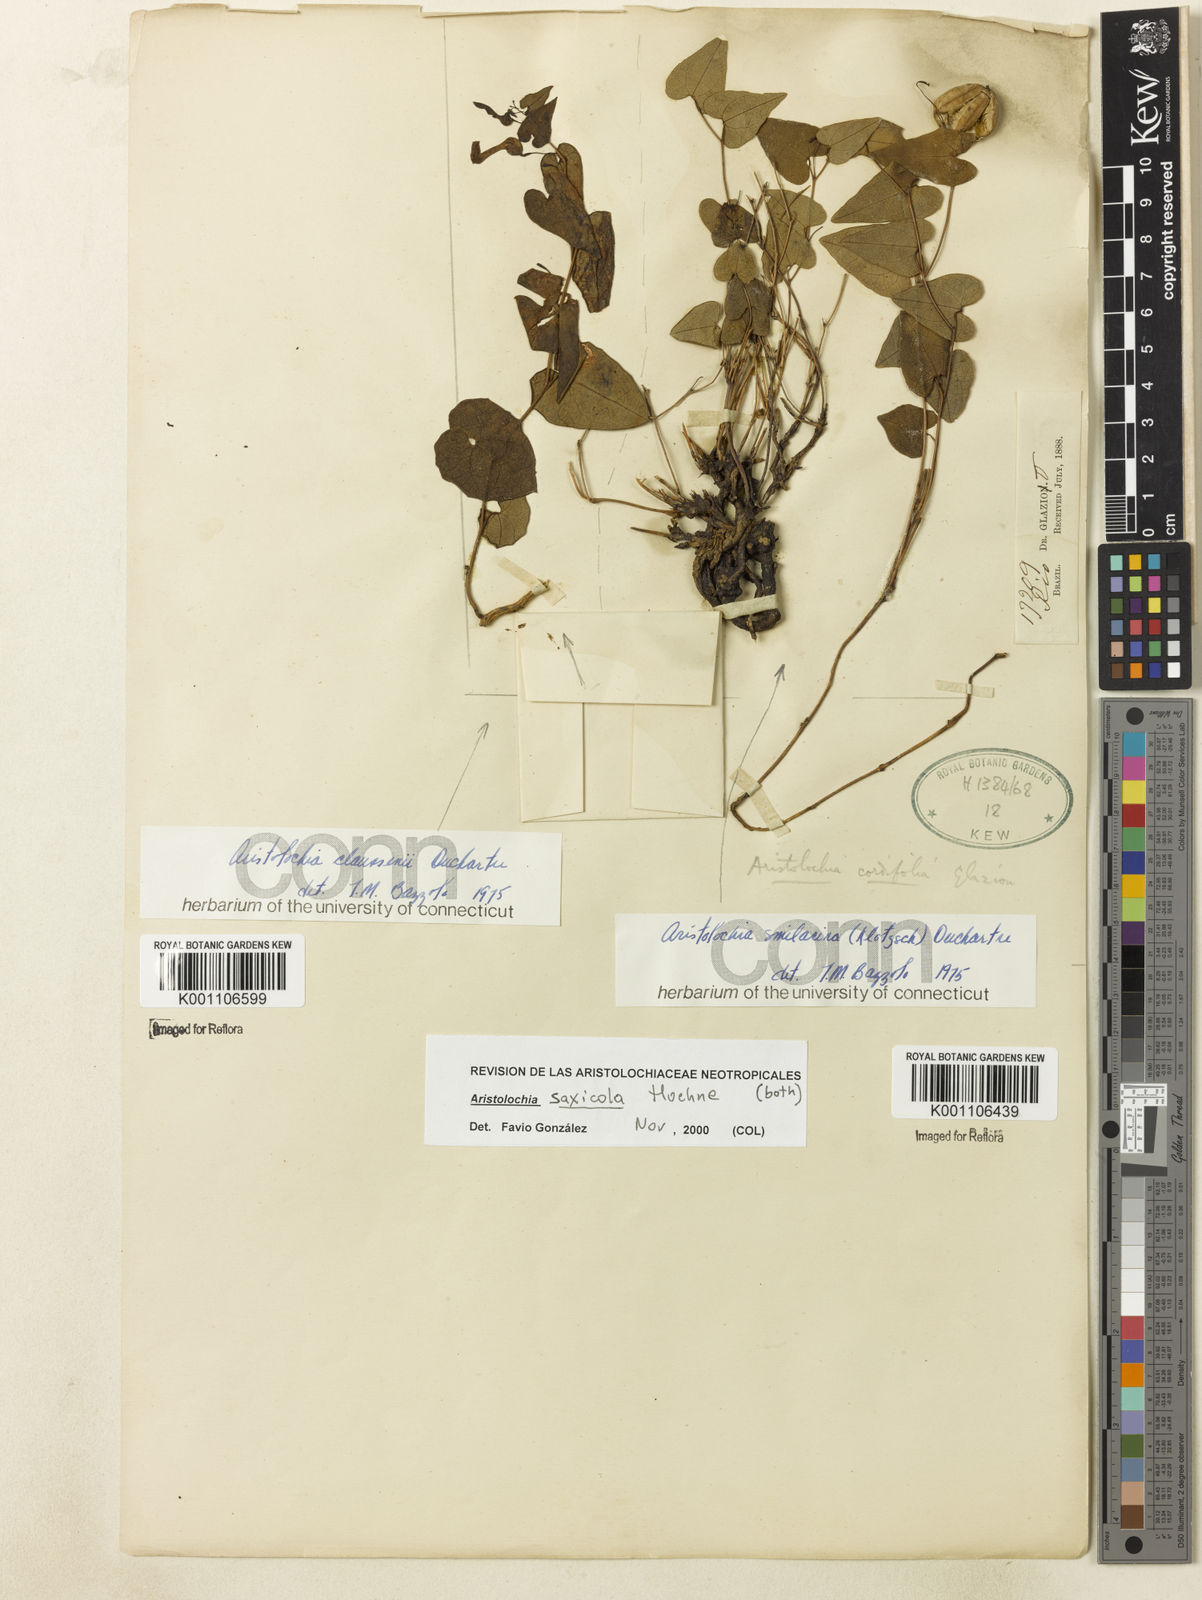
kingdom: Plantae
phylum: Tracheophyta
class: Magnoliopsida
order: Piperales
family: Aristolochiaceae
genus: Aristolochia
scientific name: Aristolochia smilacina
